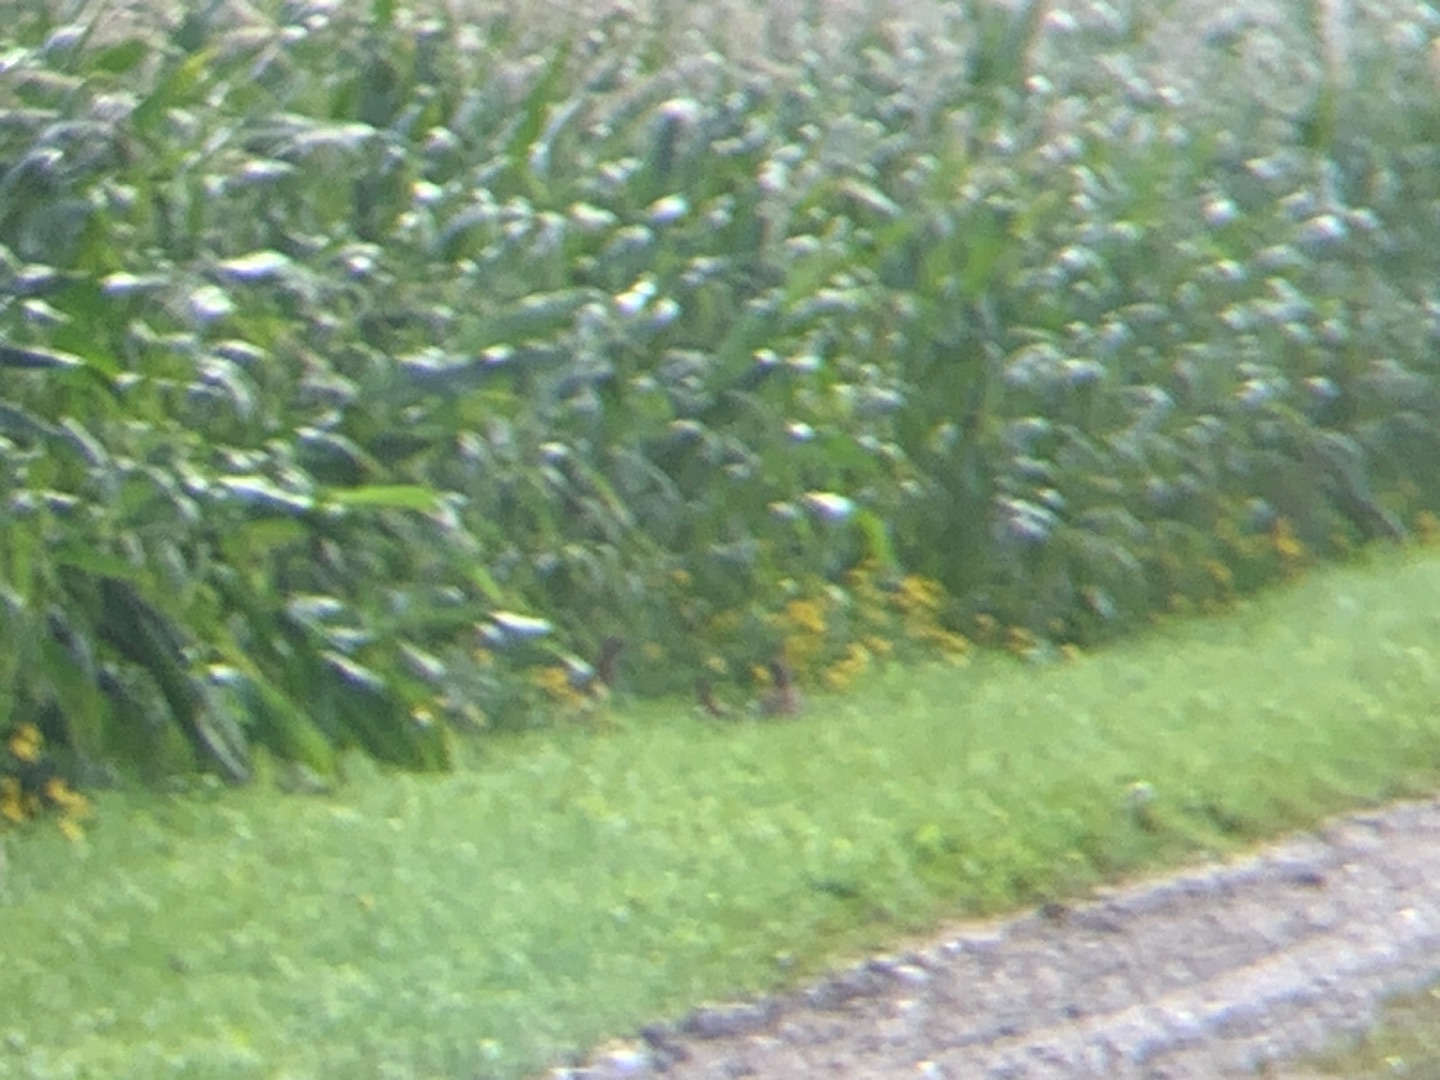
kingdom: Animalia
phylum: Chordata
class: Aves
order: Galliformes
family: Phasianidae
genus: Perdix
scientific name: Perdix perdix
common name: Agerhøne
